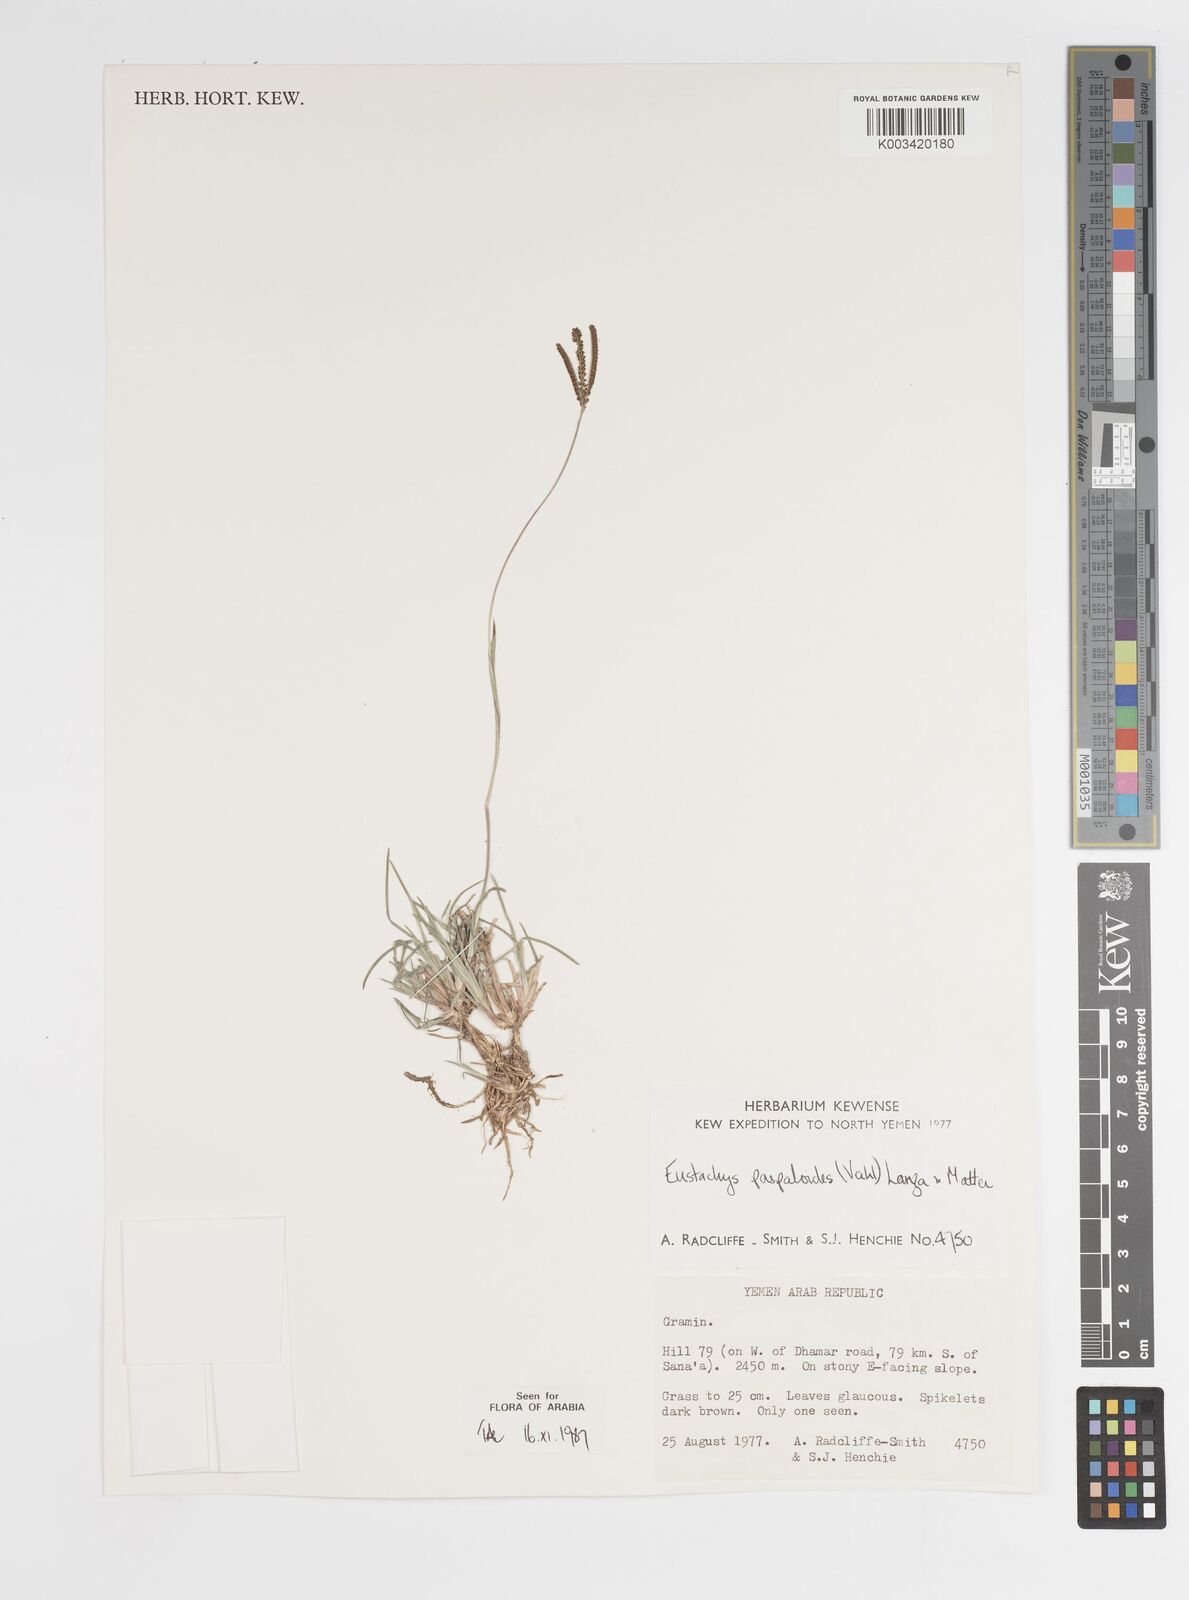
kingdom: Plantae
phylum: Tracheophyta
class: Liliopsida
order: Poales
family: Poaceae
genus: Eustachys
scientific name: Eustachys paspaloides
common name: Caribbean fingergrass
